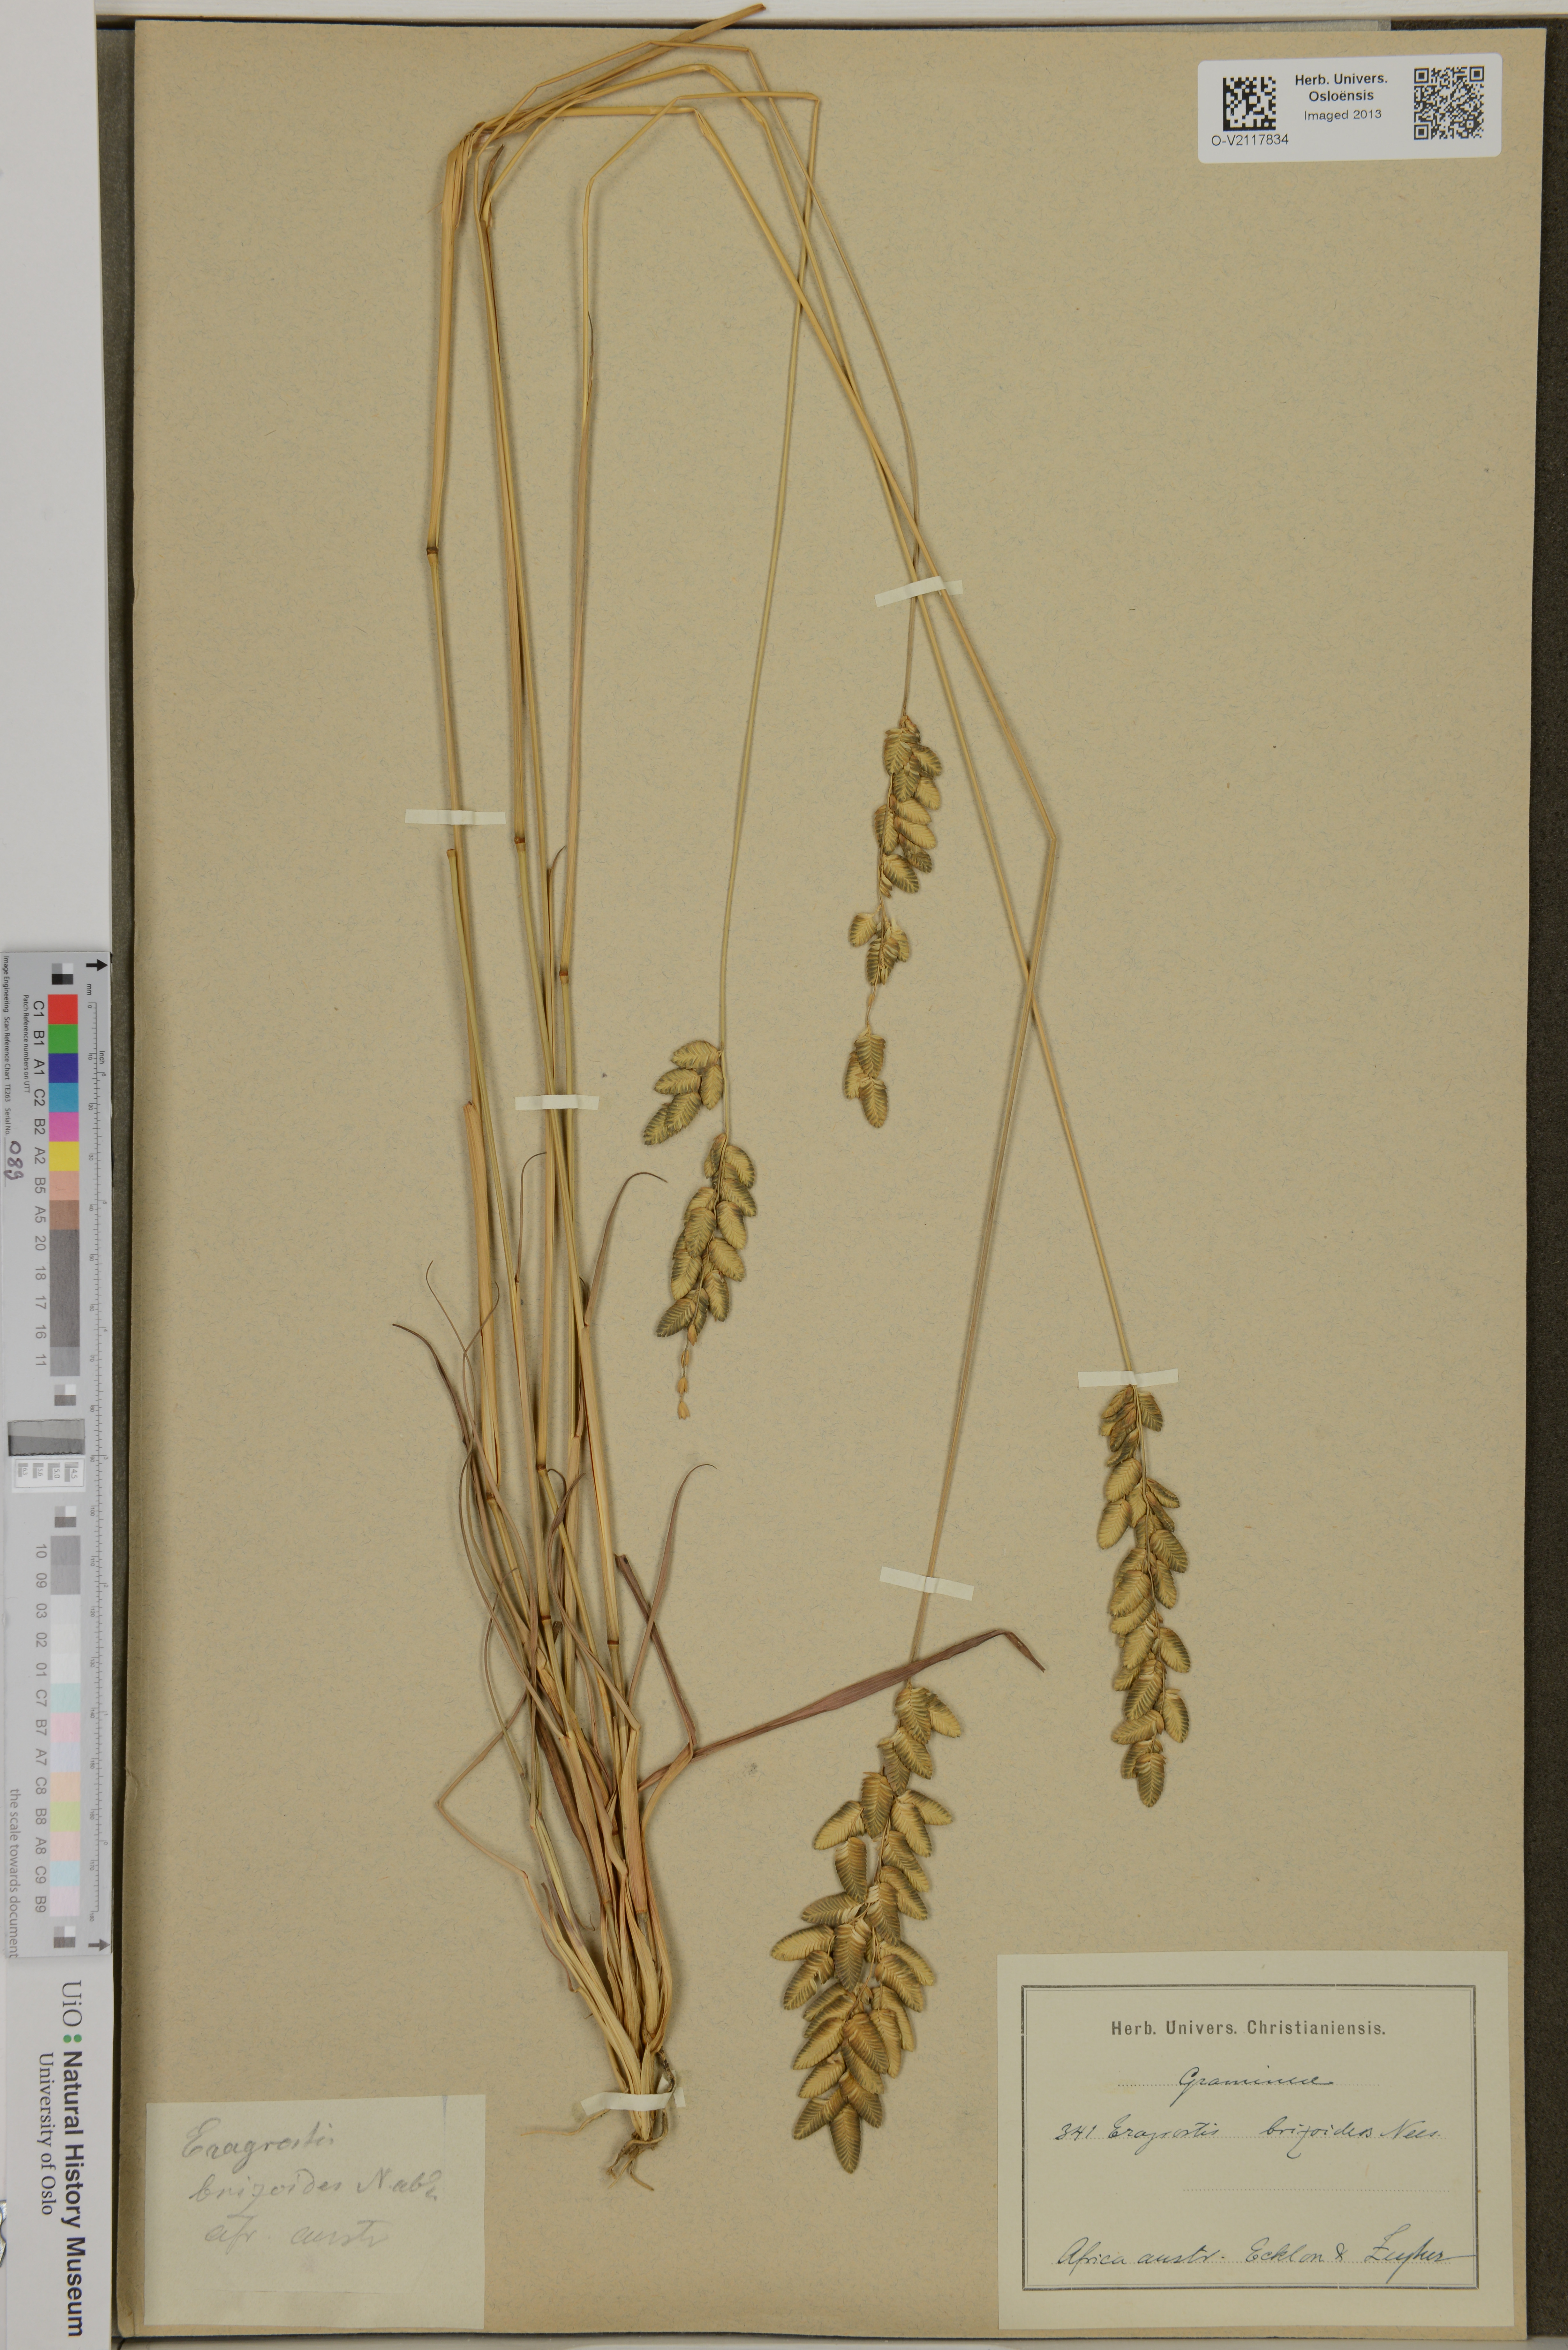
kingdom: Plantae
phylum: Tracheophyta
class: Liliopsida
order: Poales
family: Poaceae
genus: Eragrostis
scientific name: Eragrostis
